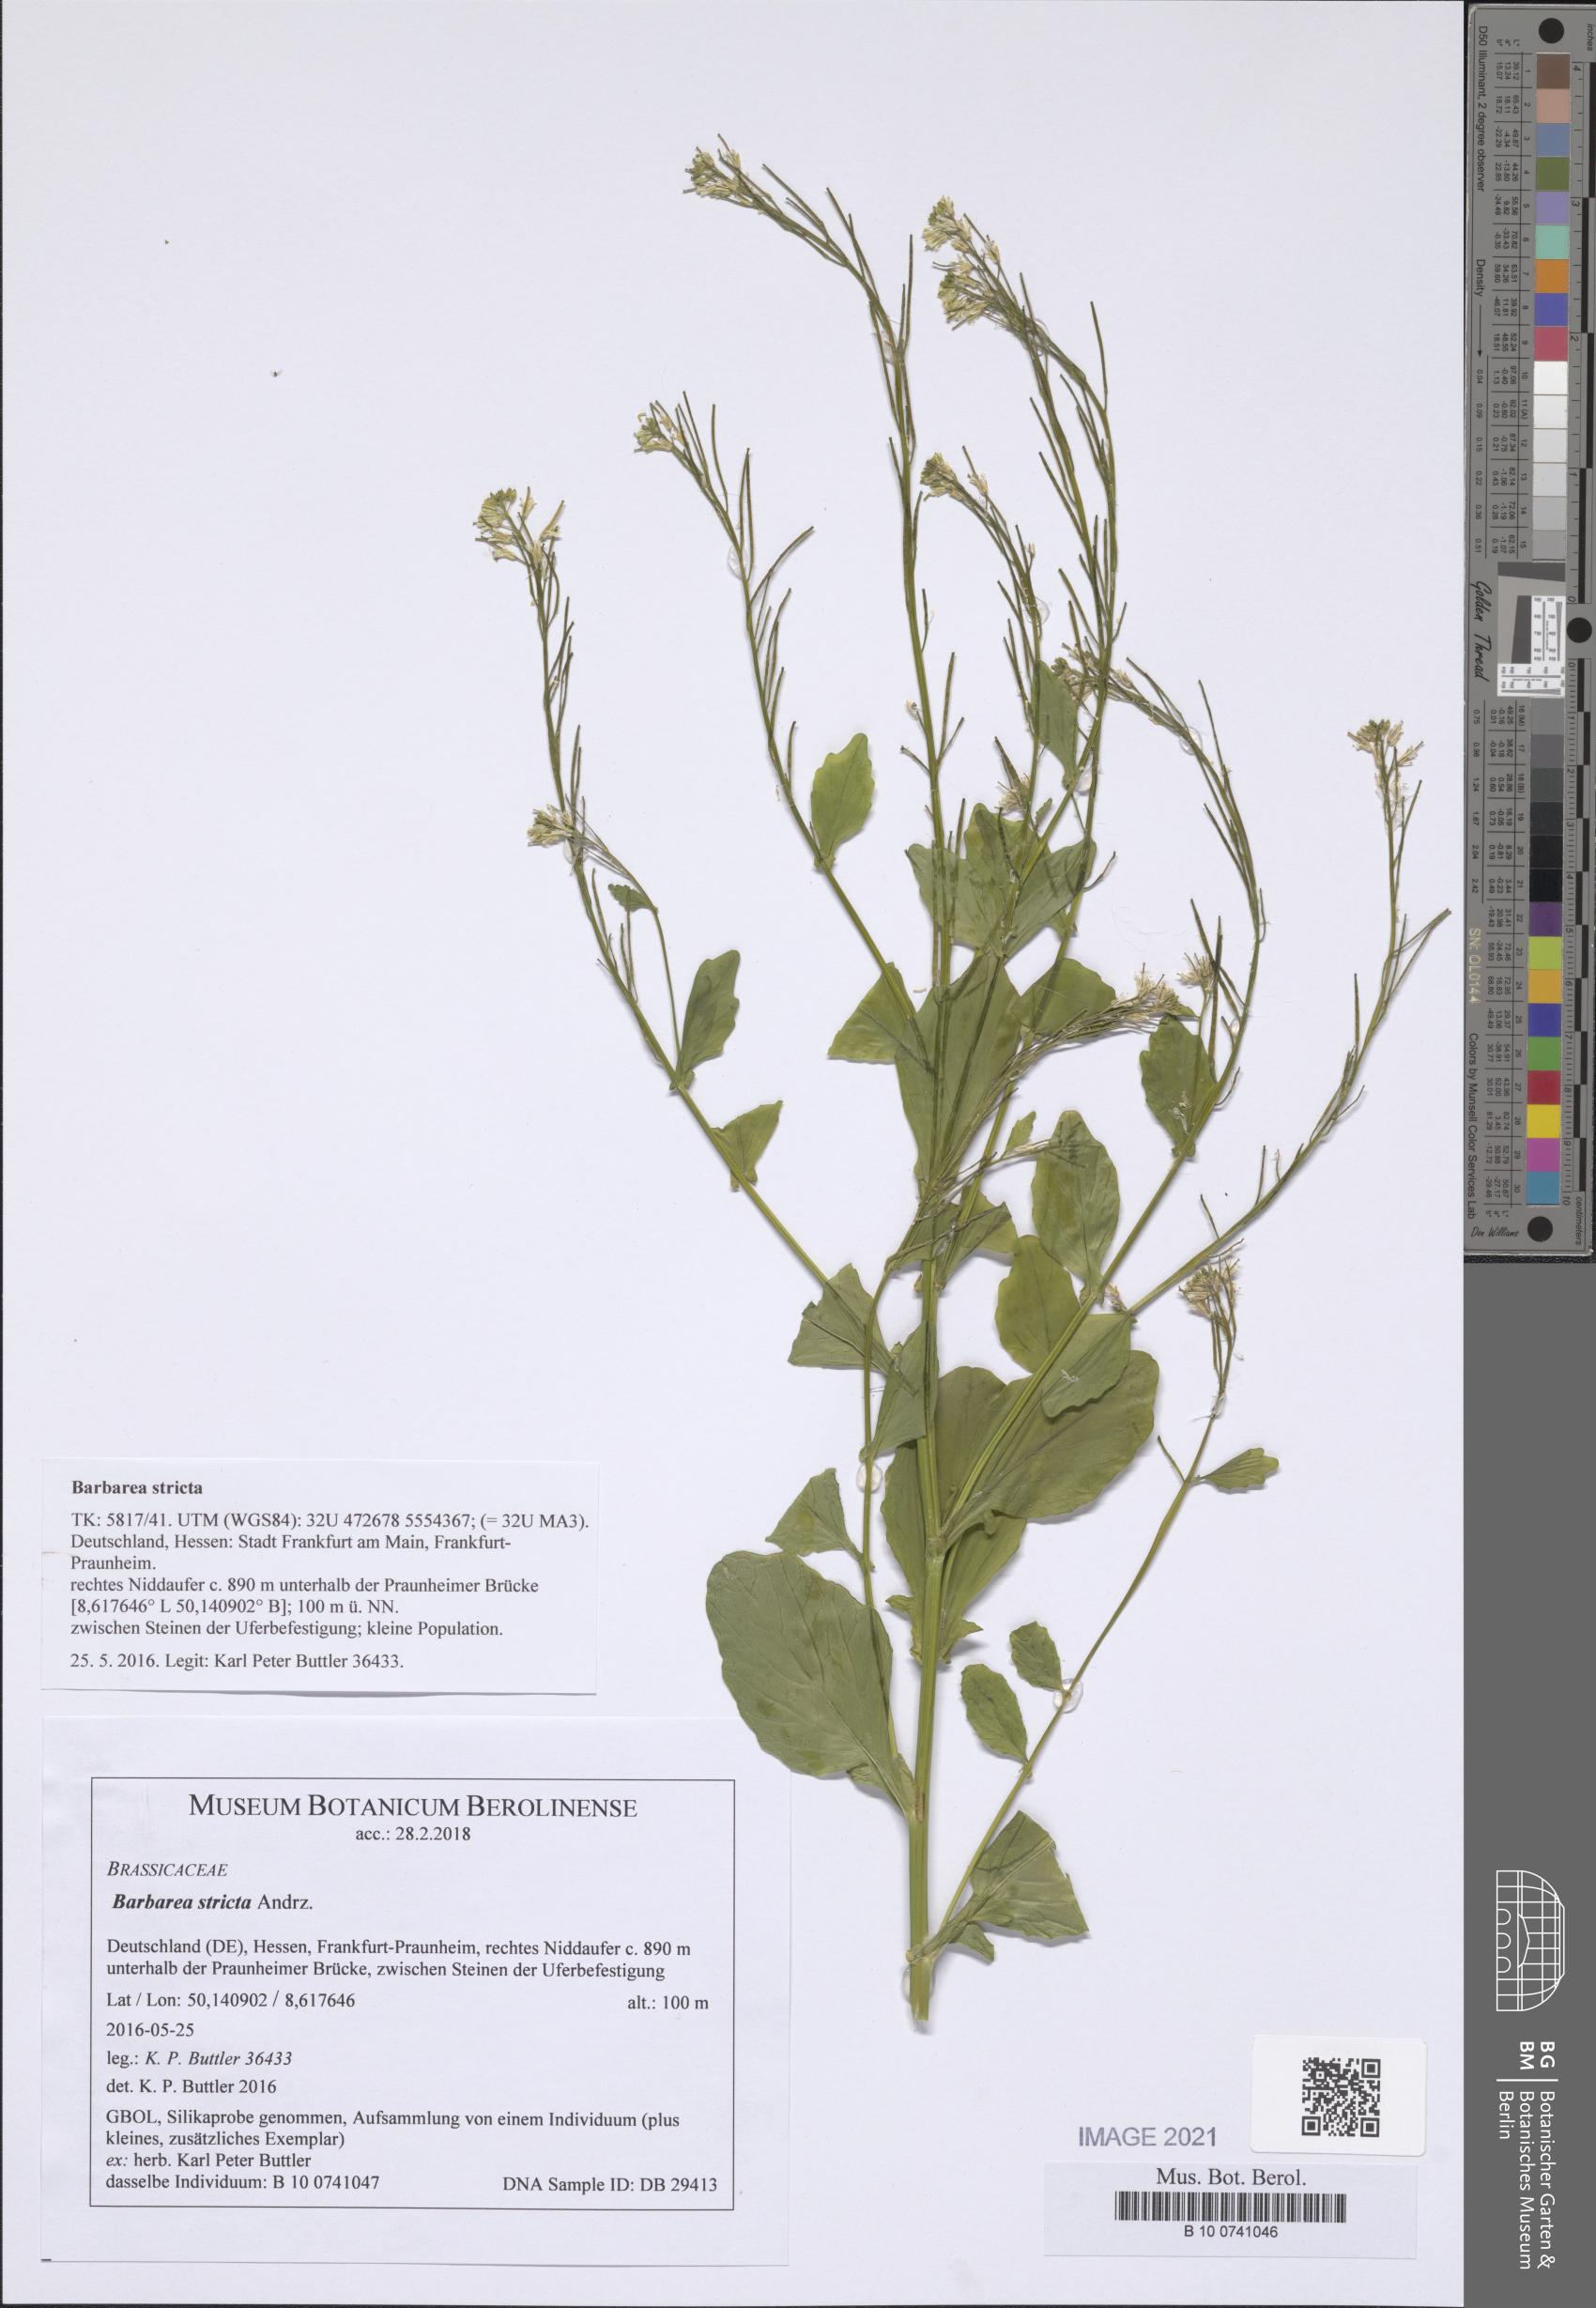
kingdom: Plantae
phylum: Tracheophyta
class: Magnoliopsida
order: Brassicales
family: Brassicaceae
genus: Barbarea
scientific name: Barbarea stricta
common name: Small-flowered winter-cress
